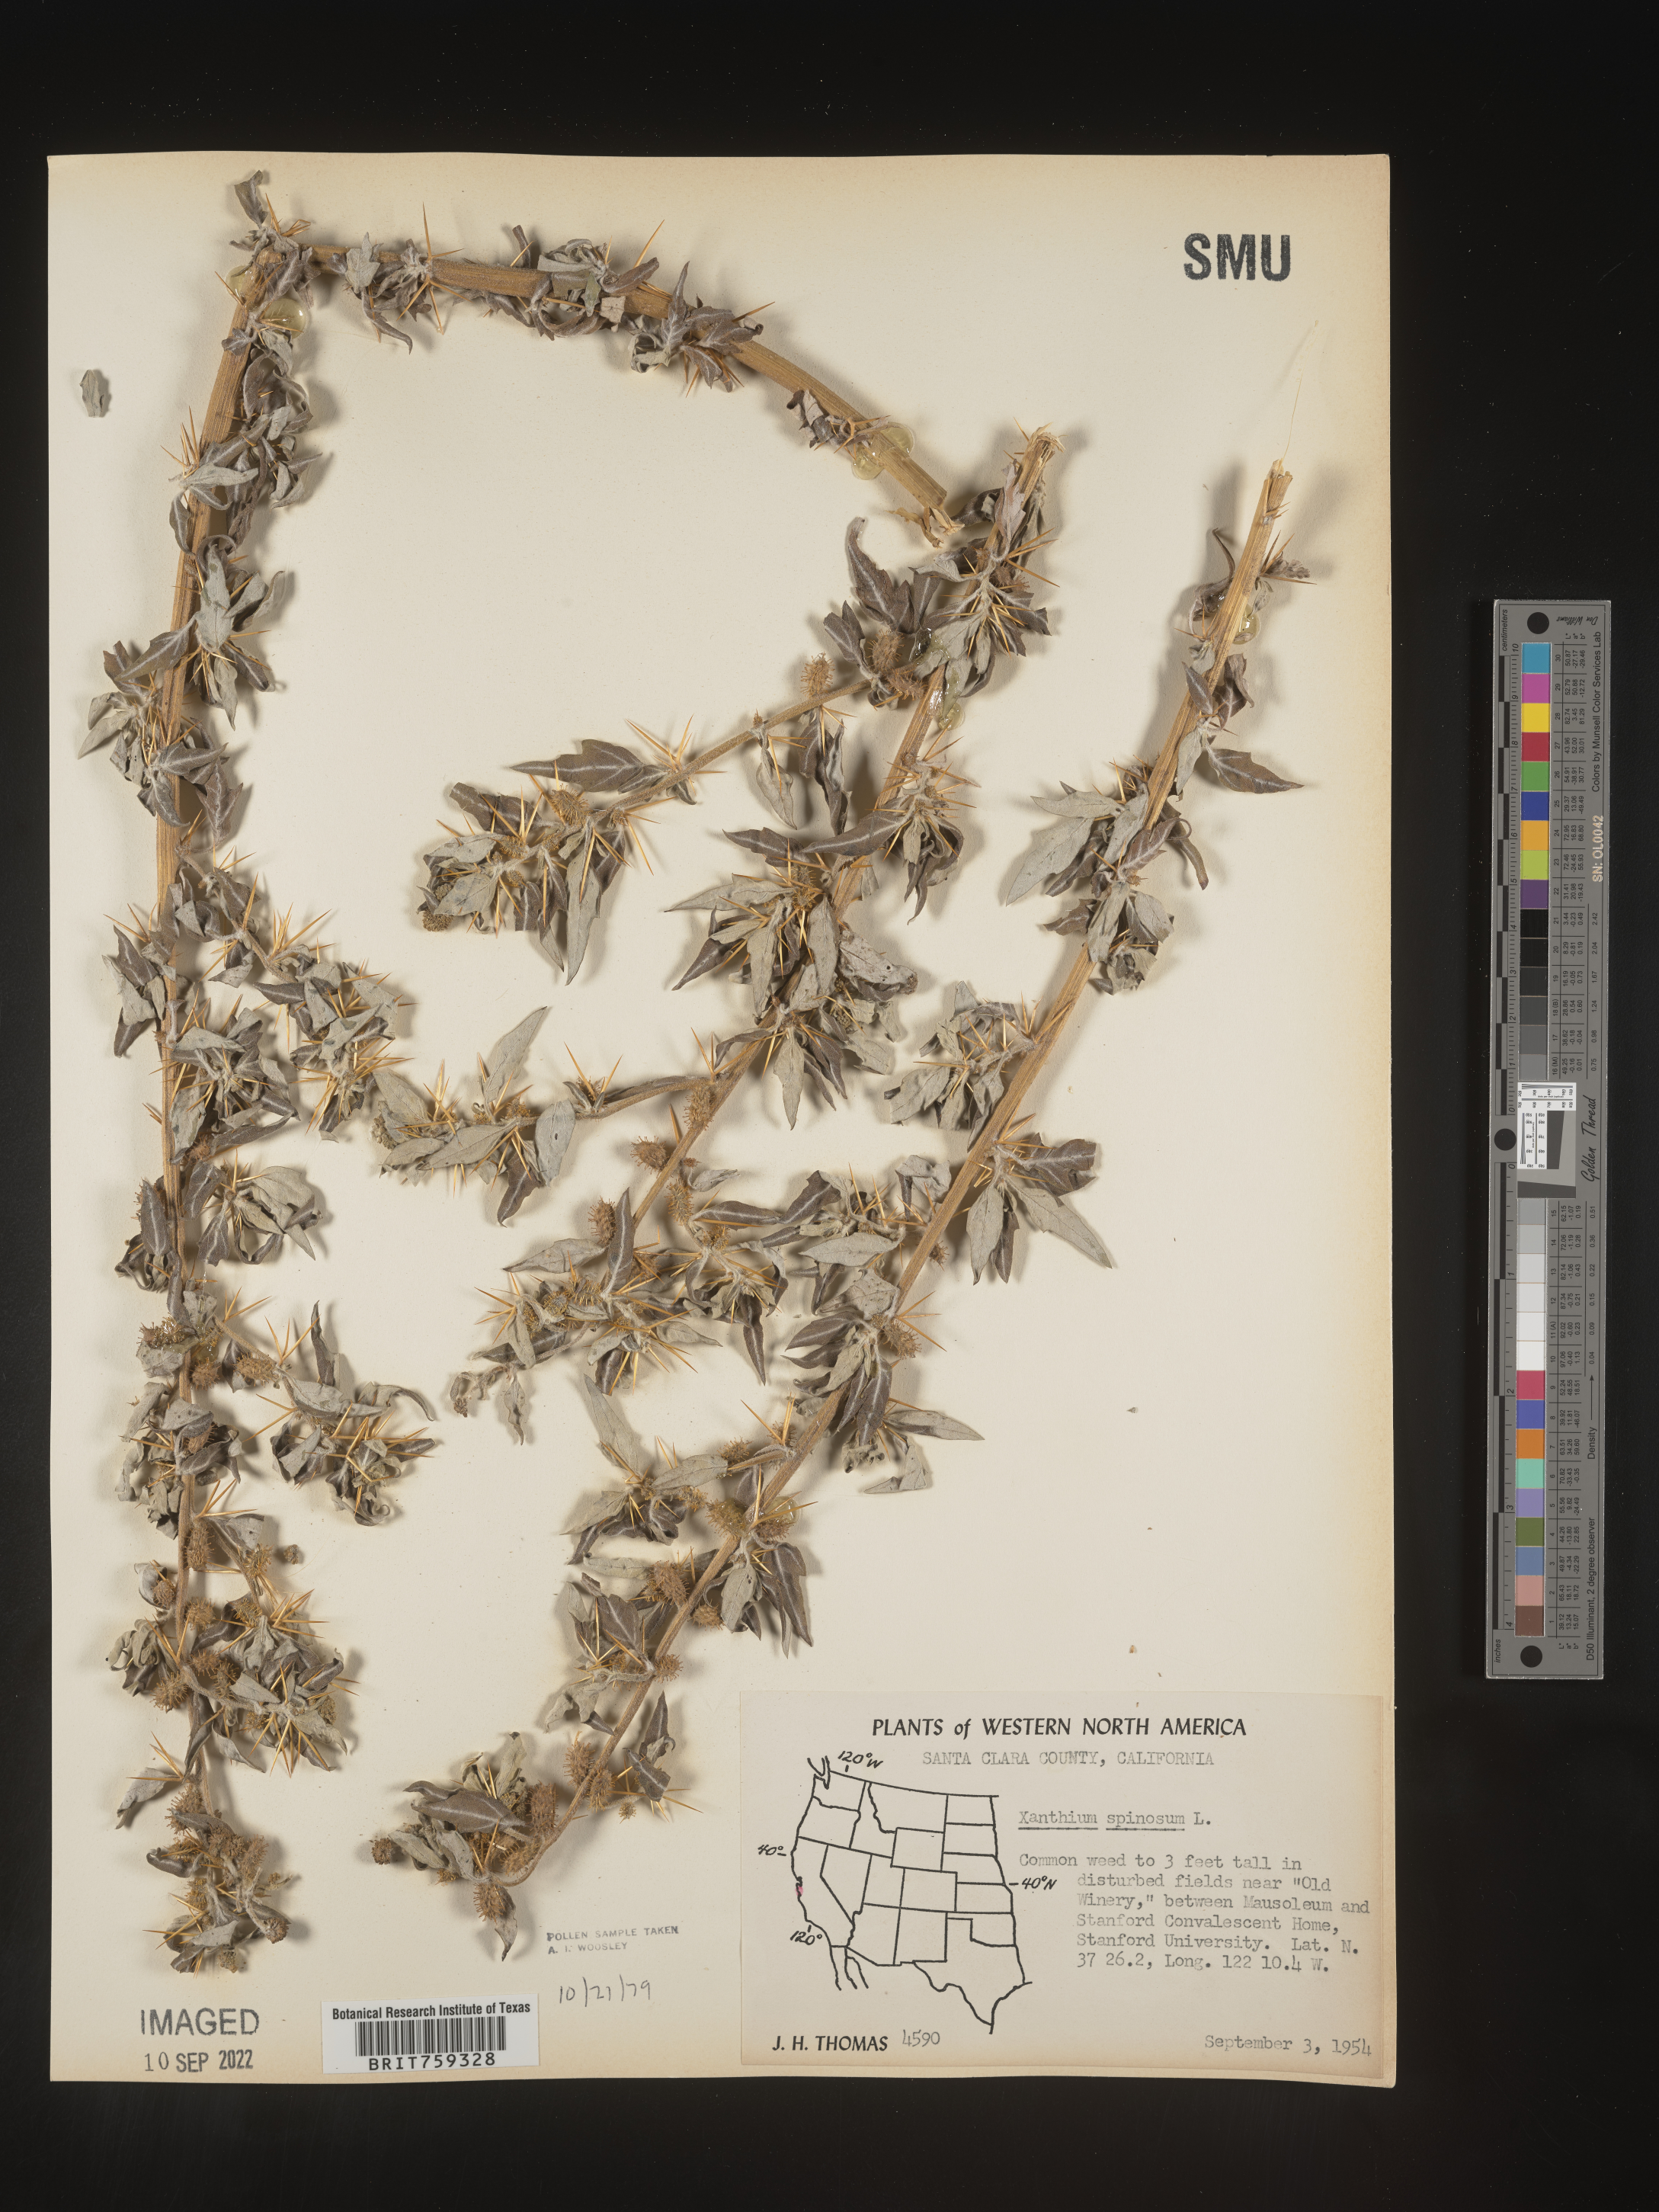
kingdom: Plantae
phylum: Tracheophyta
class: Magnoliopsida
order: Asterales
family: Asteraceae
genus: Xanthium
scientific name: Xanthium spinosum
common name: Spiny cocklebur
